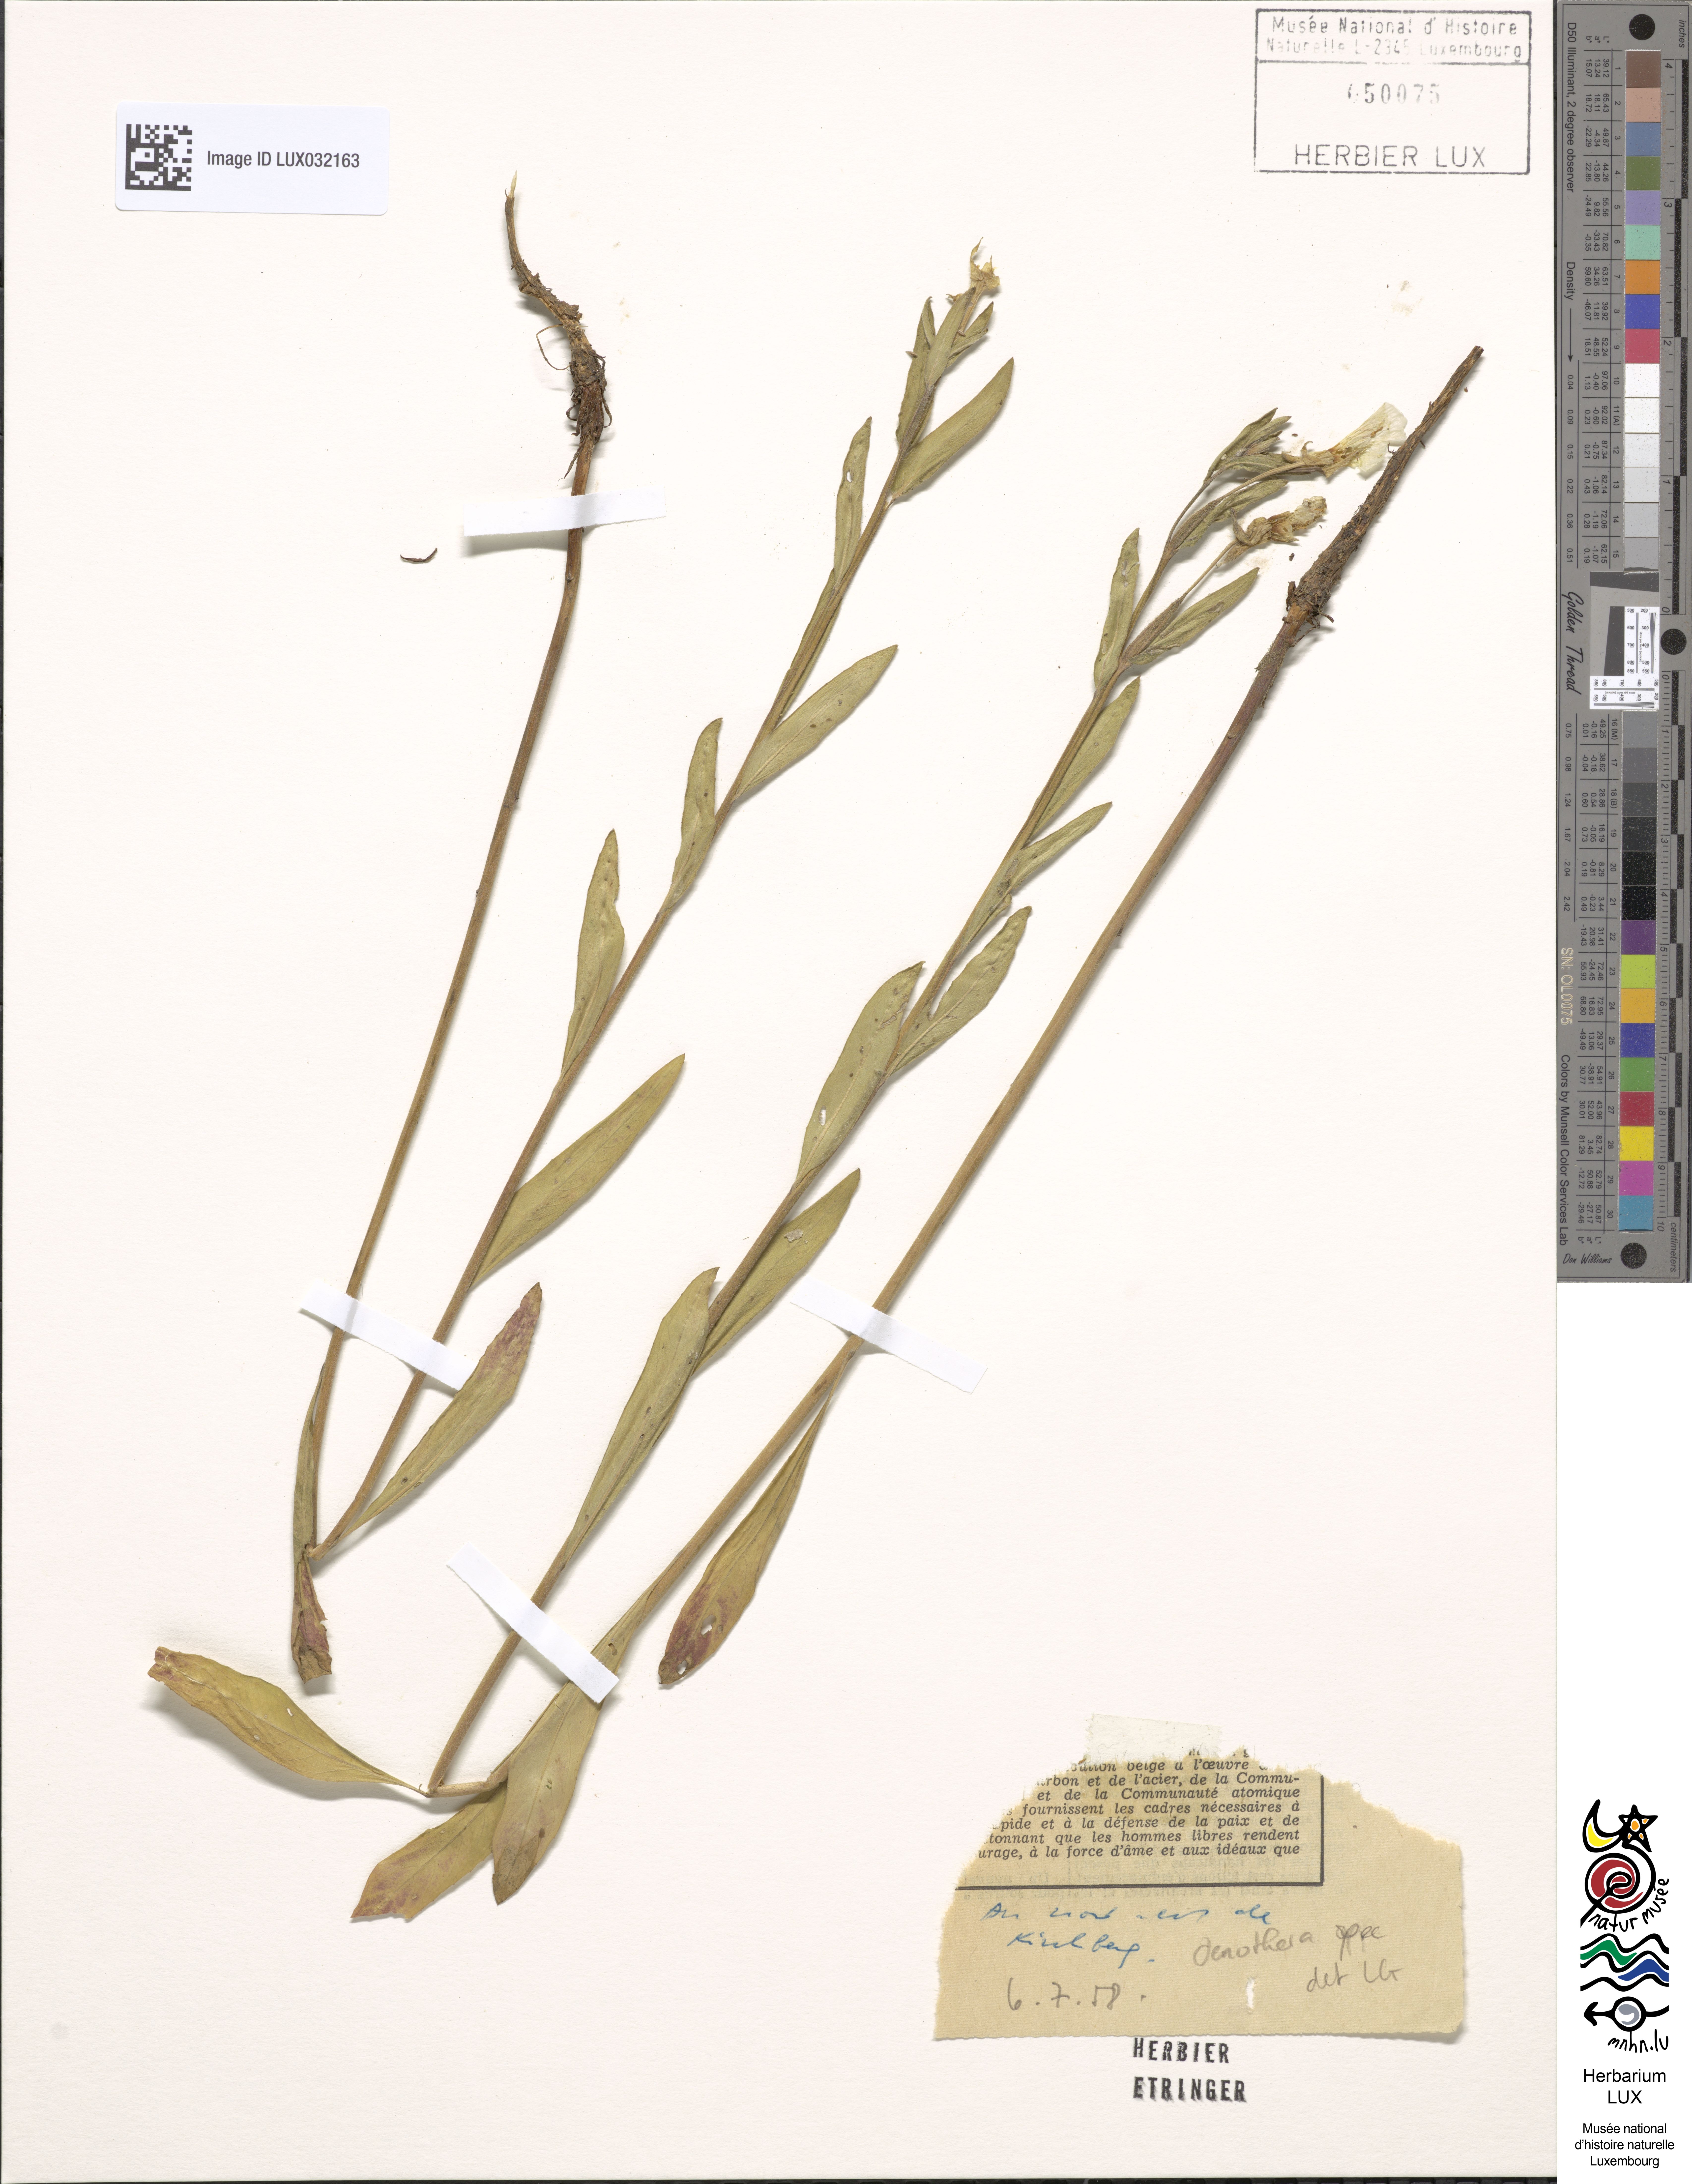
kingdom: Plantae
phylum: Tracheophyta
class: Magnoliopsida
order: Myrtales
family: Onagraceae
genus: Oenothera
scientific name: Oenothera
